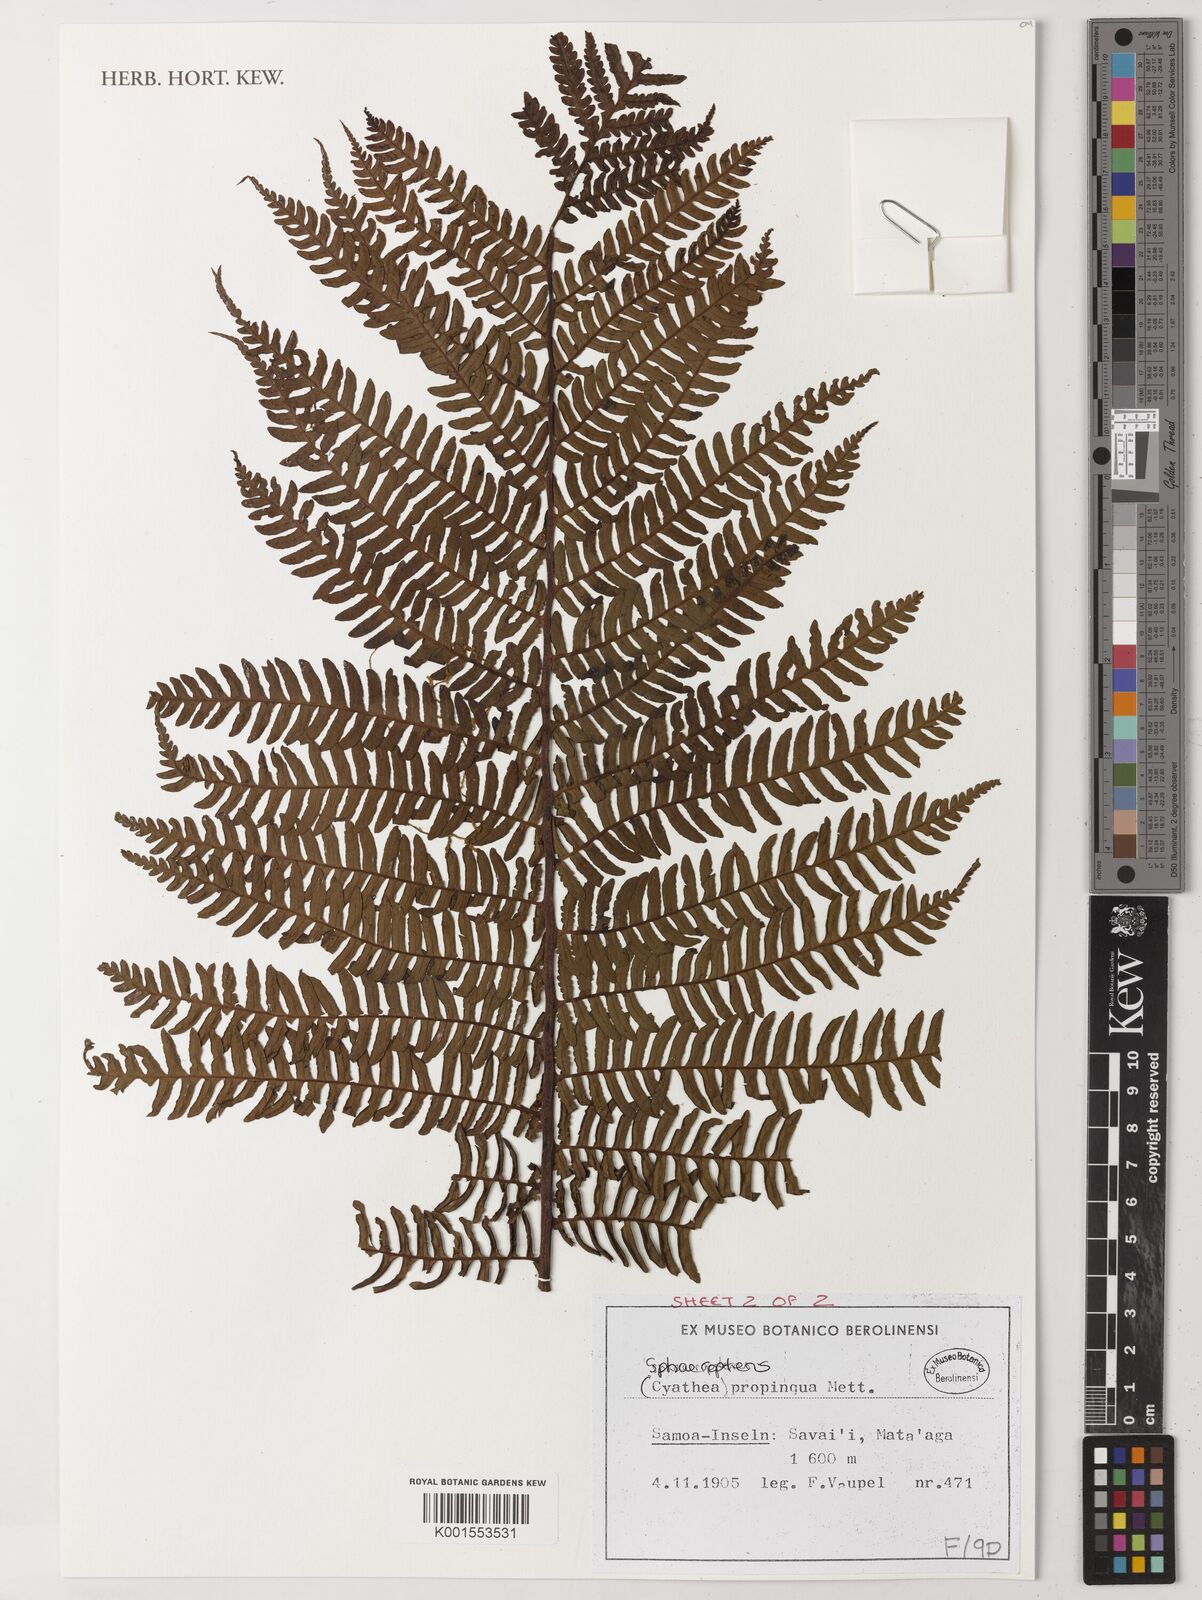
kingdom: Plantae
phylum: Tracheophyta
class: Polypodiopsida
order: Cyatheales
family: Cyatheaceae
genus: Sphaeropteris
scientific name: Sphaeropteris propinqua
